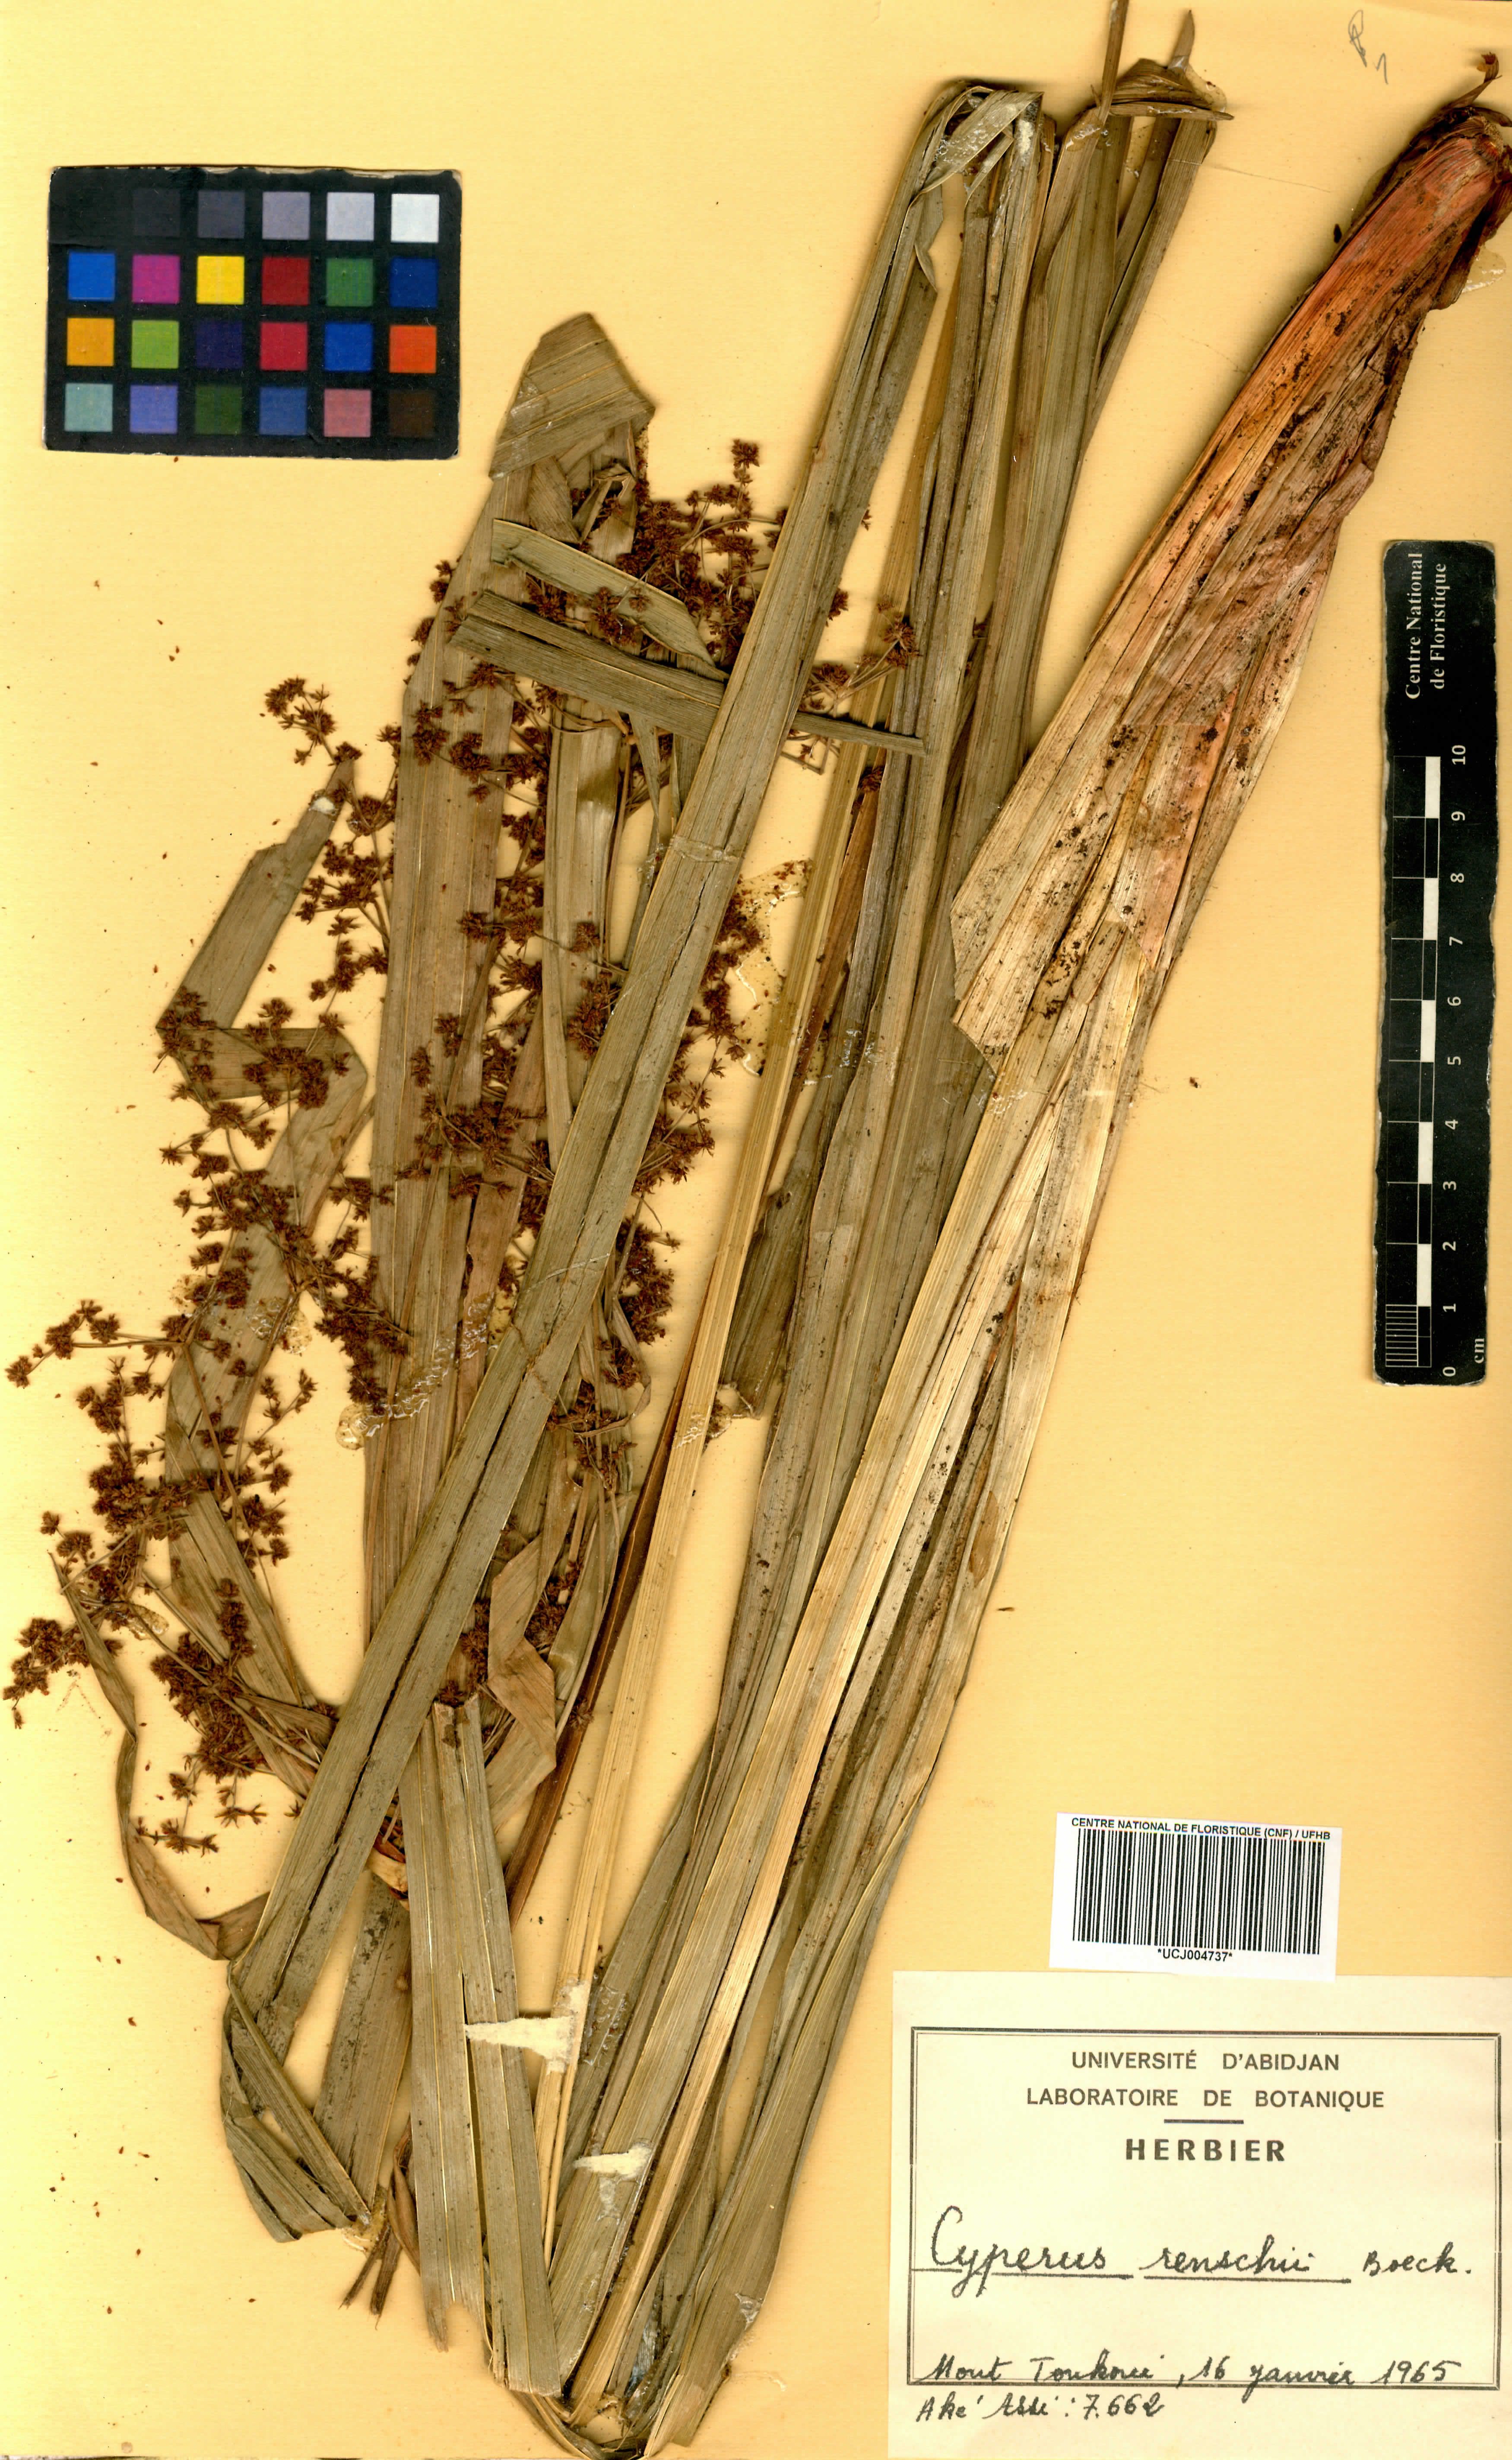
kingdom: Plantae
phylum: Tracheophyta
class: Liliopsida
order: Poales
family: Cyperaceae
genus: Cyperus
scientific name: Cyperus renschii
